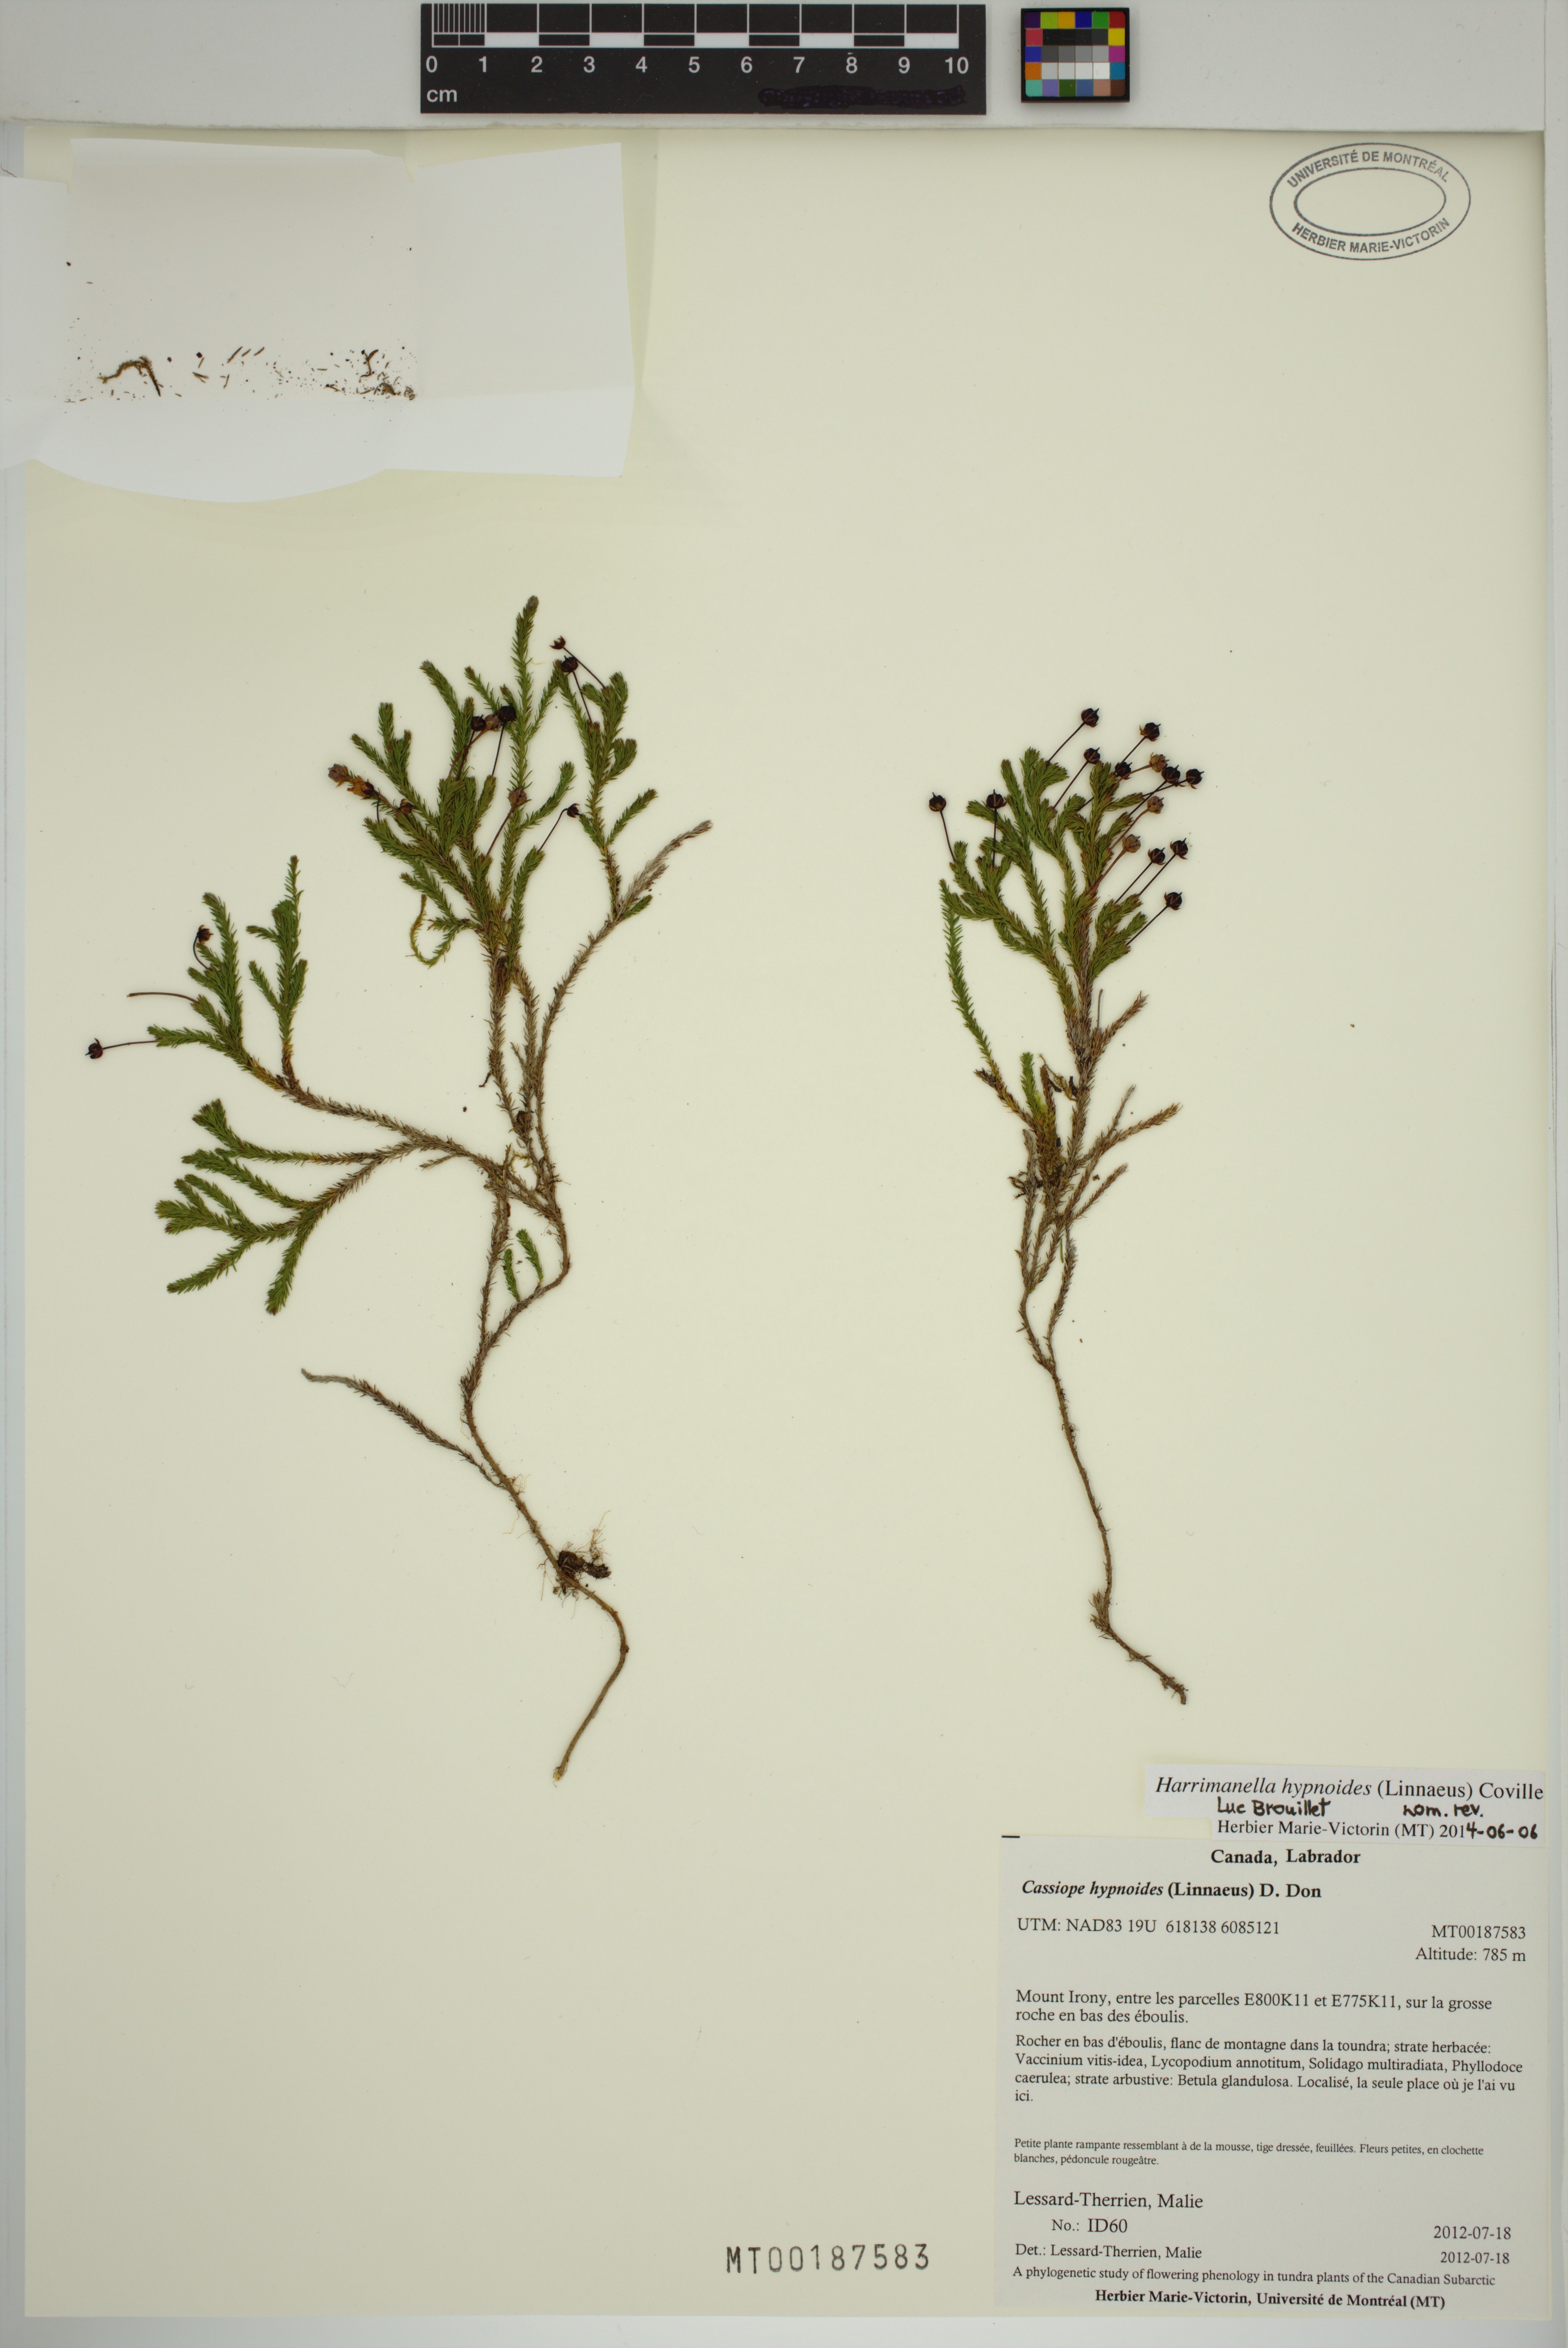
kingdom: Plantae
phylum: Tracheophyta
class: Magnoliopsida
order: Ericales
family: Ericaceae
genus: Harrimanella
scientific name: Harrimanella hypnoides
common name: Moss bell heather
